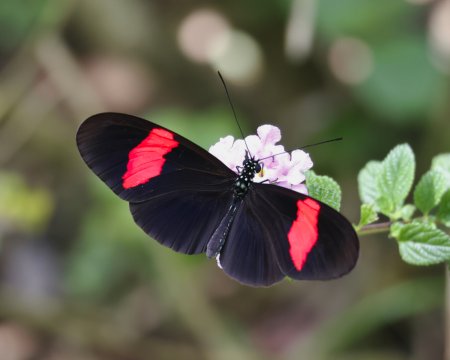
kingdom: Animalia
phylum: Arthropoda
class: Insecta
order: Lepidoptera
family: Nymphalidae
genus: Heliconius
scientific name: Heliconius erato
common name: Erato Heliconian
